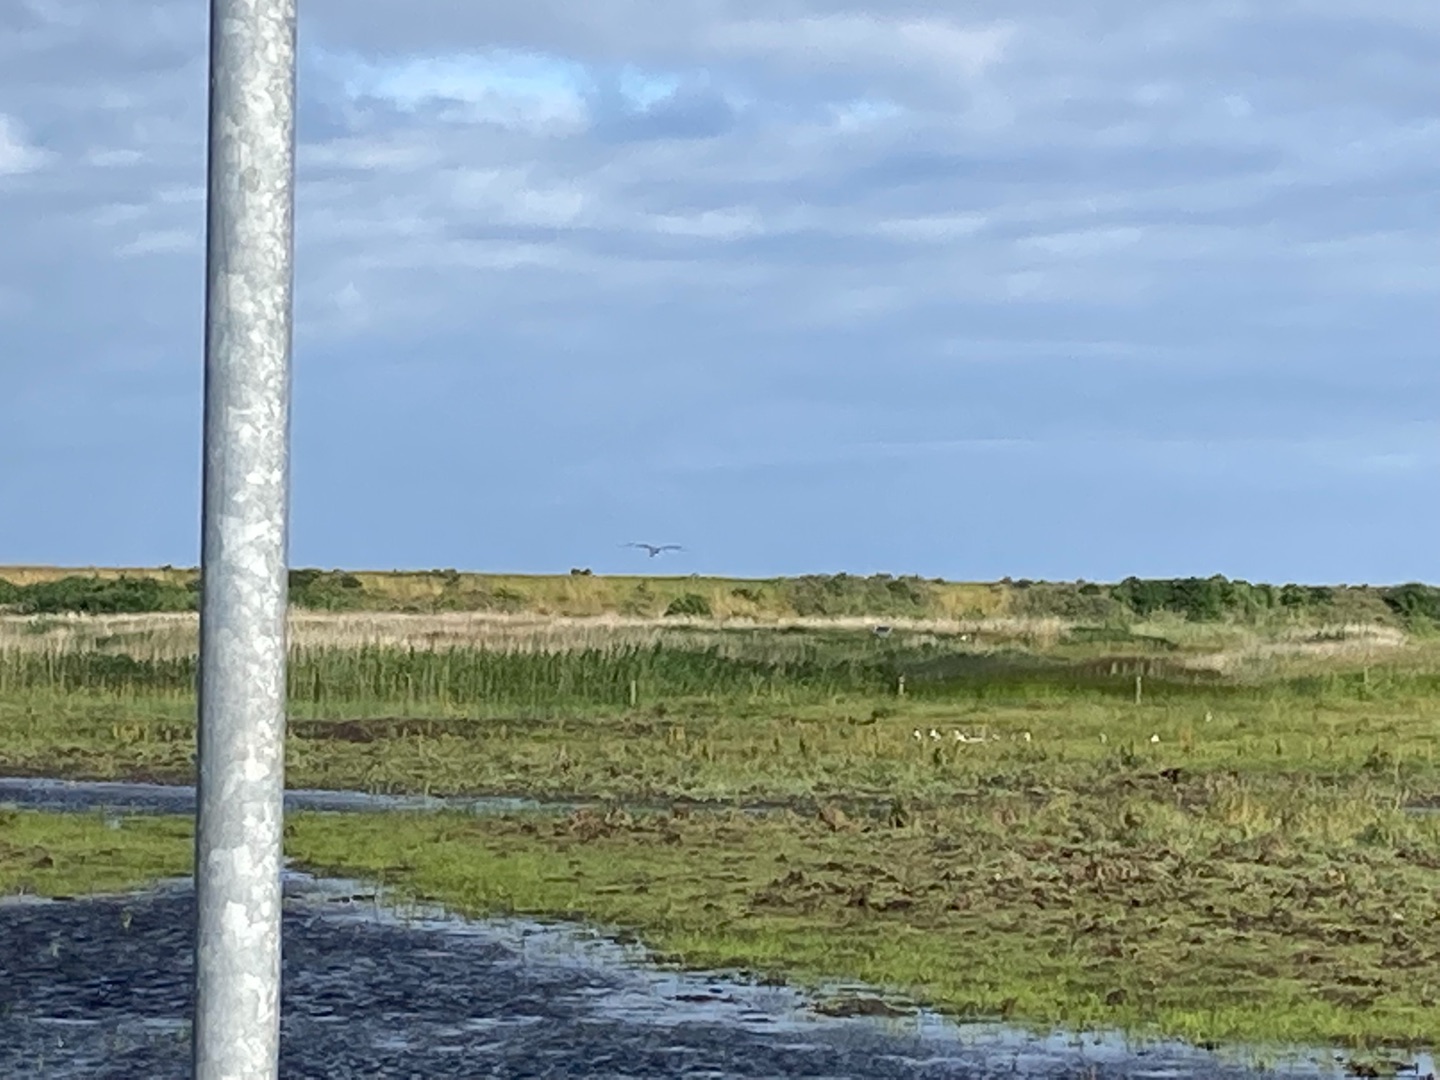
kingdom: Animalia
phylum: Chordata
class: Aves
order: Pelecaniformes
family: Ardeidae
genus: Ardea
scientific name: Ardea cinerea
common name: Fiskehejre
